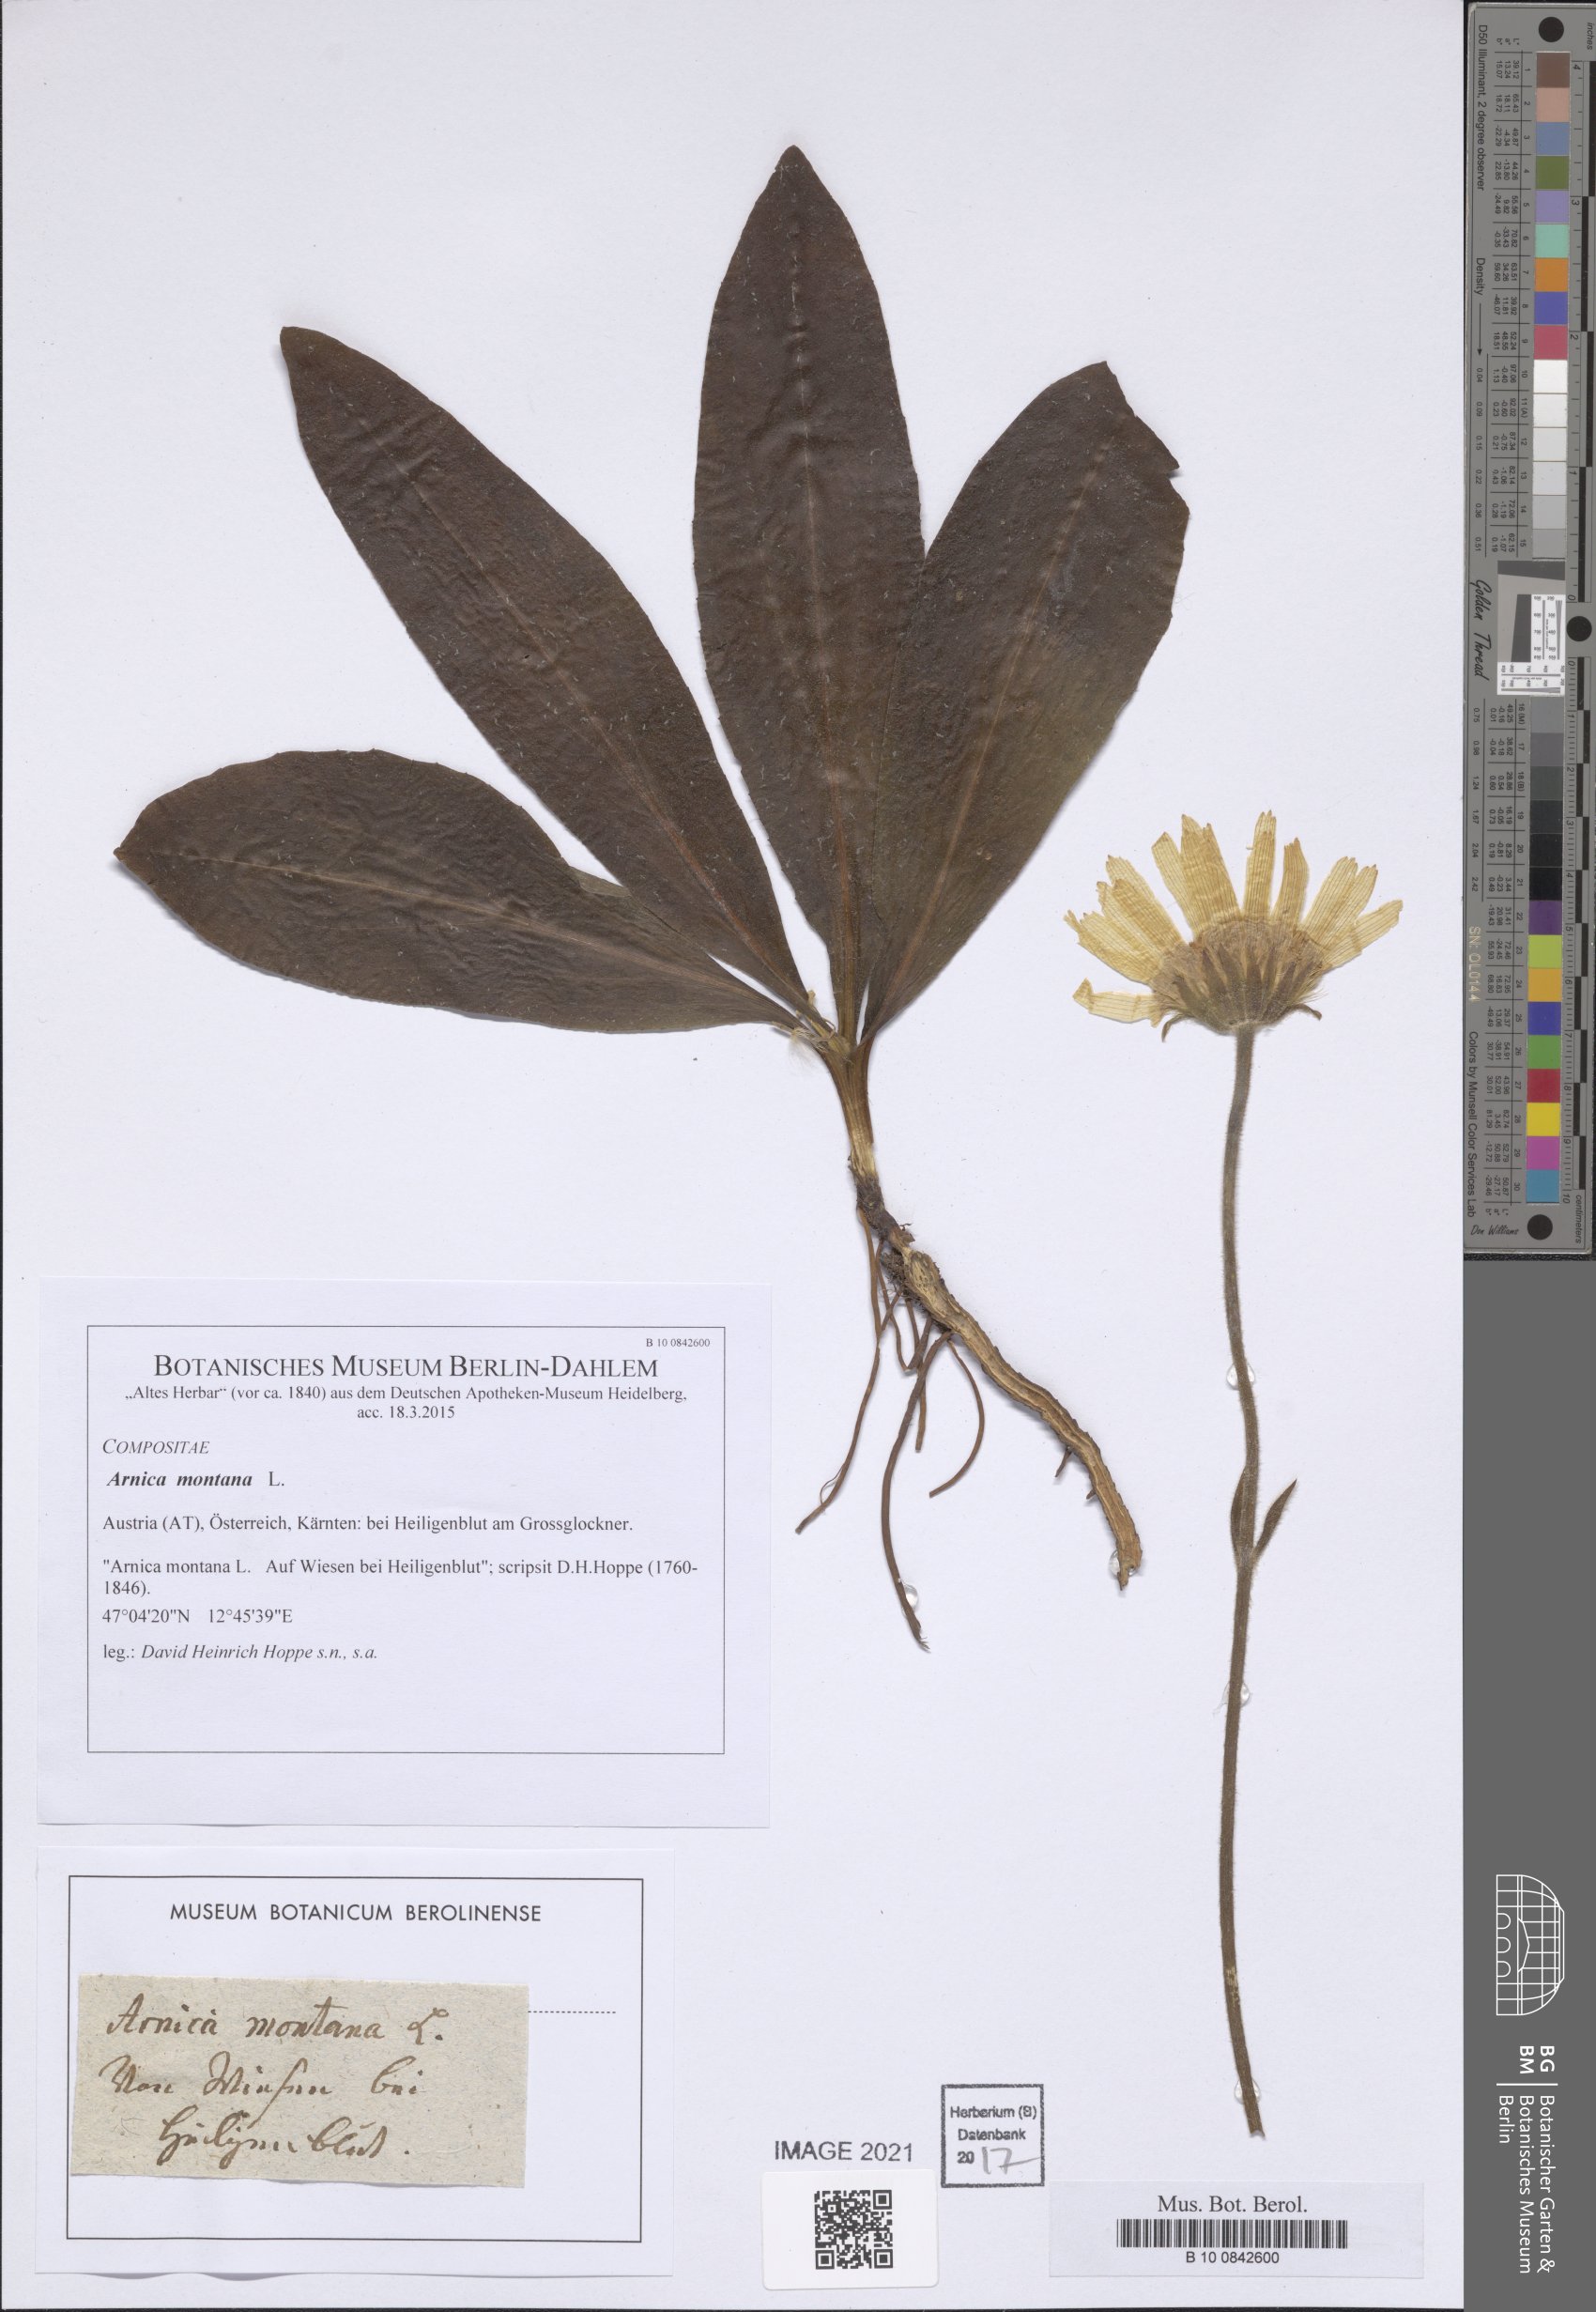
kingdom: Plantae
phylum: Tracheophyta
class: Magnoliopsida
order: Asterales
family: Asteraceae
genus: Arnica
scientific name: Arnica montana
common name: Leopard's bane
